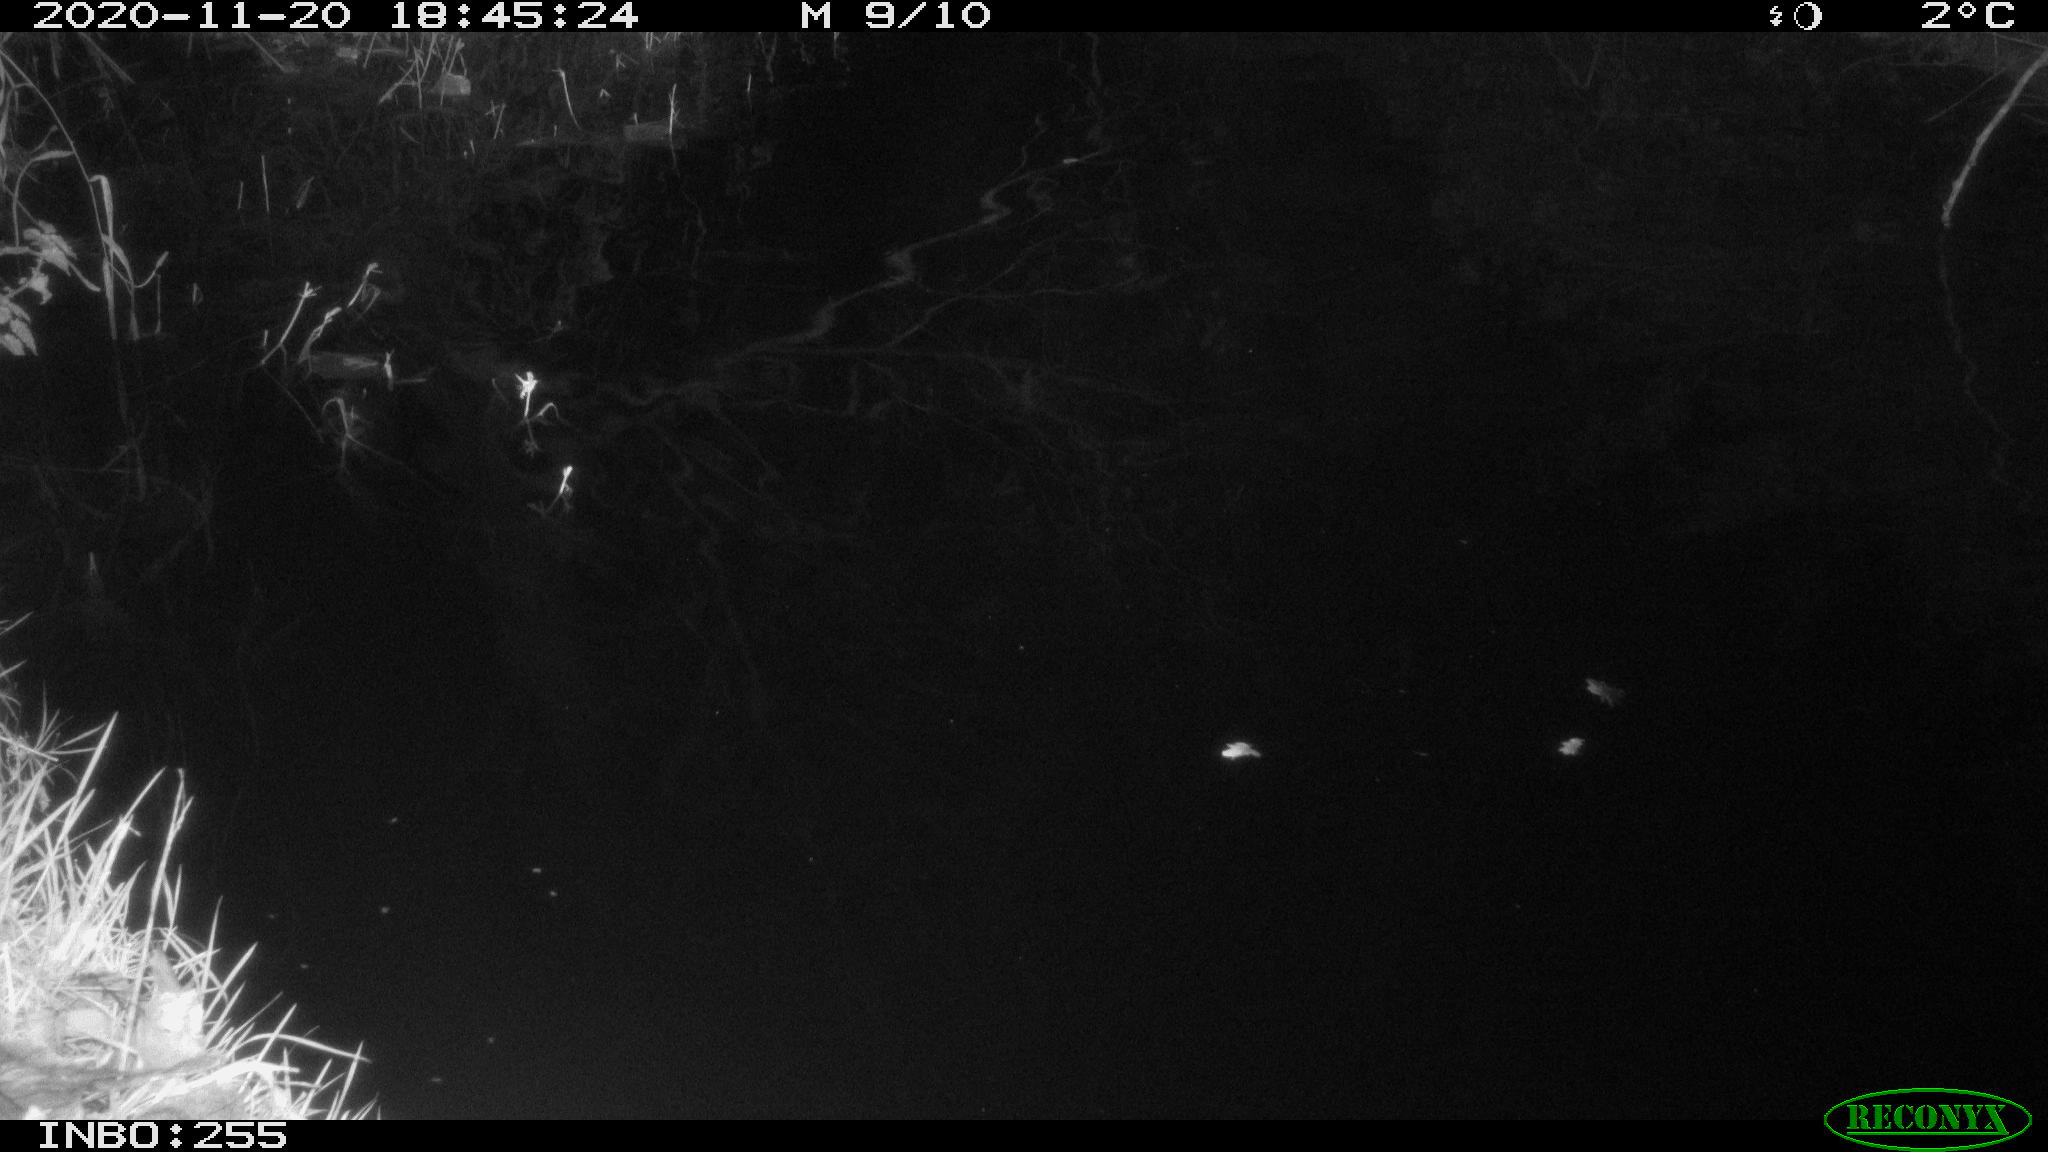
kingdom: Animalia
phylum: Chordata
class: Aves
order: Anseriformes
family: Anatidae
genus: Anas
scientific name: Anas platyrhynchos
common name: Mallard
